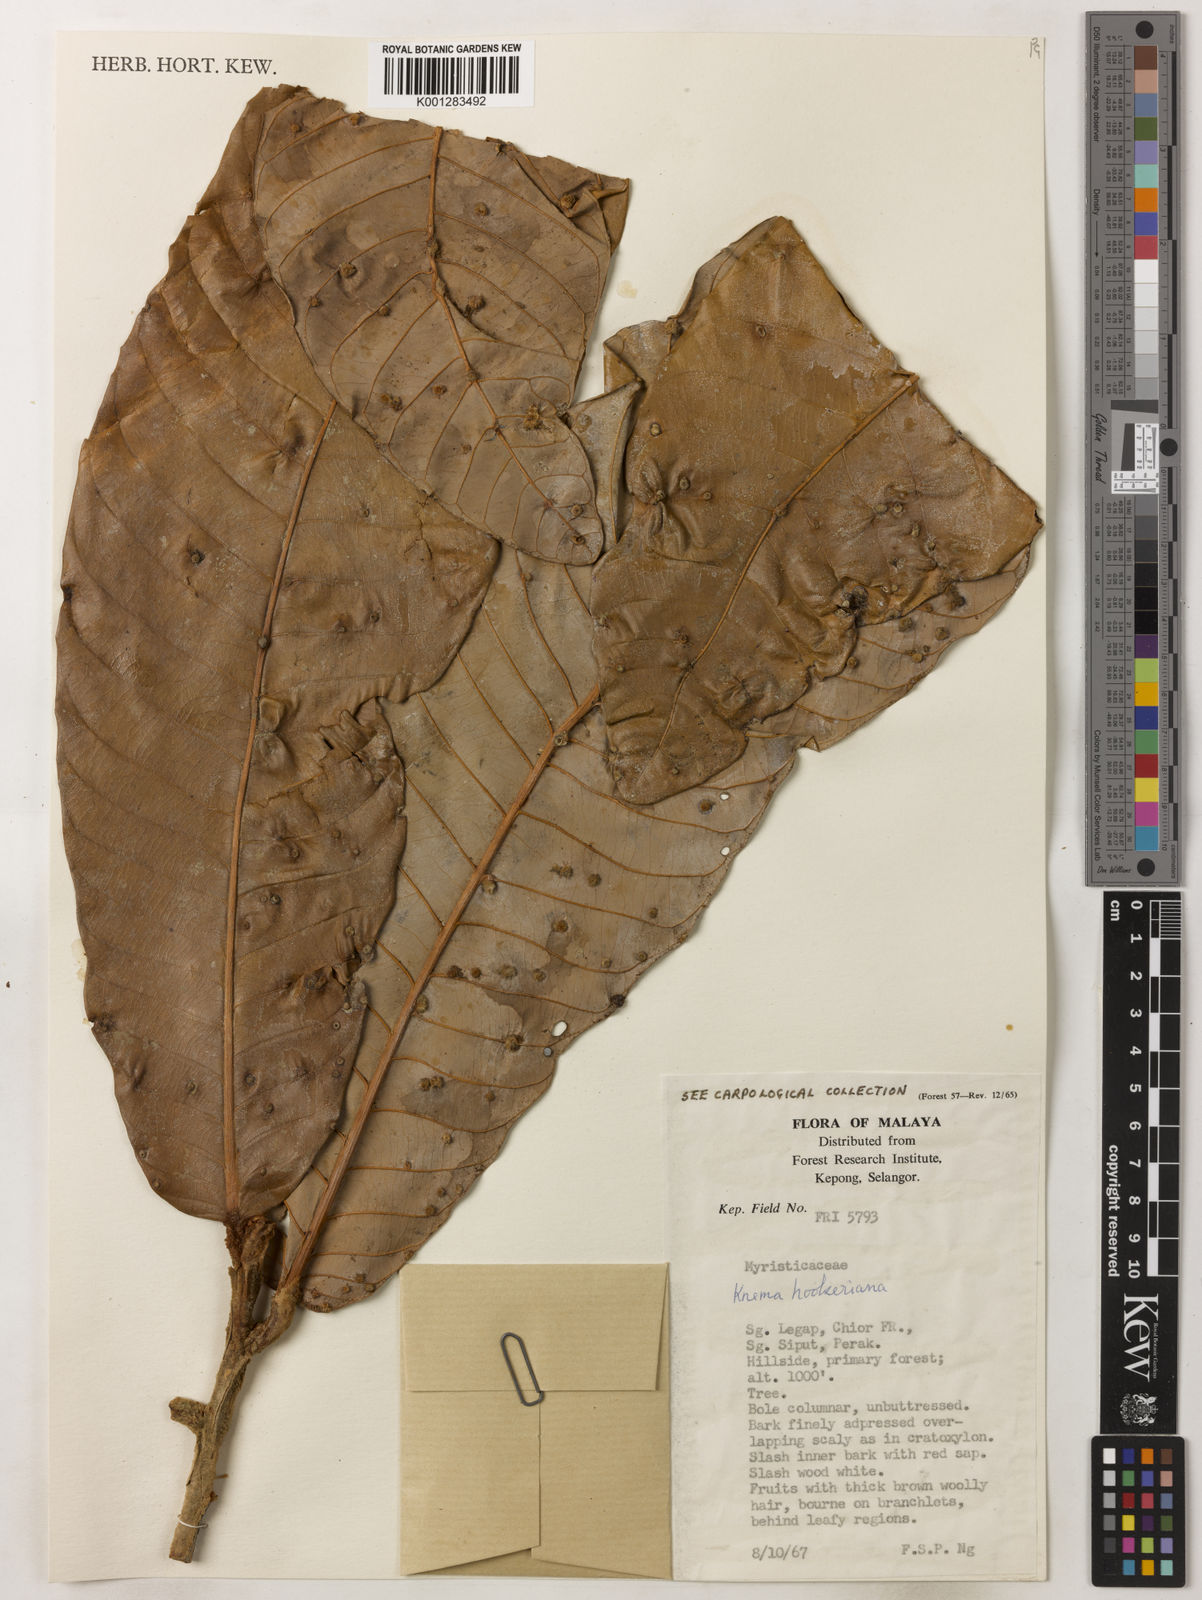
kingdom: Plantae
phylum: Tracheophyta
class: Magnoliopsida
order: Magnoliales
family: Myristicaceae
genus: Knema
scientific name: Knema hookeriana
